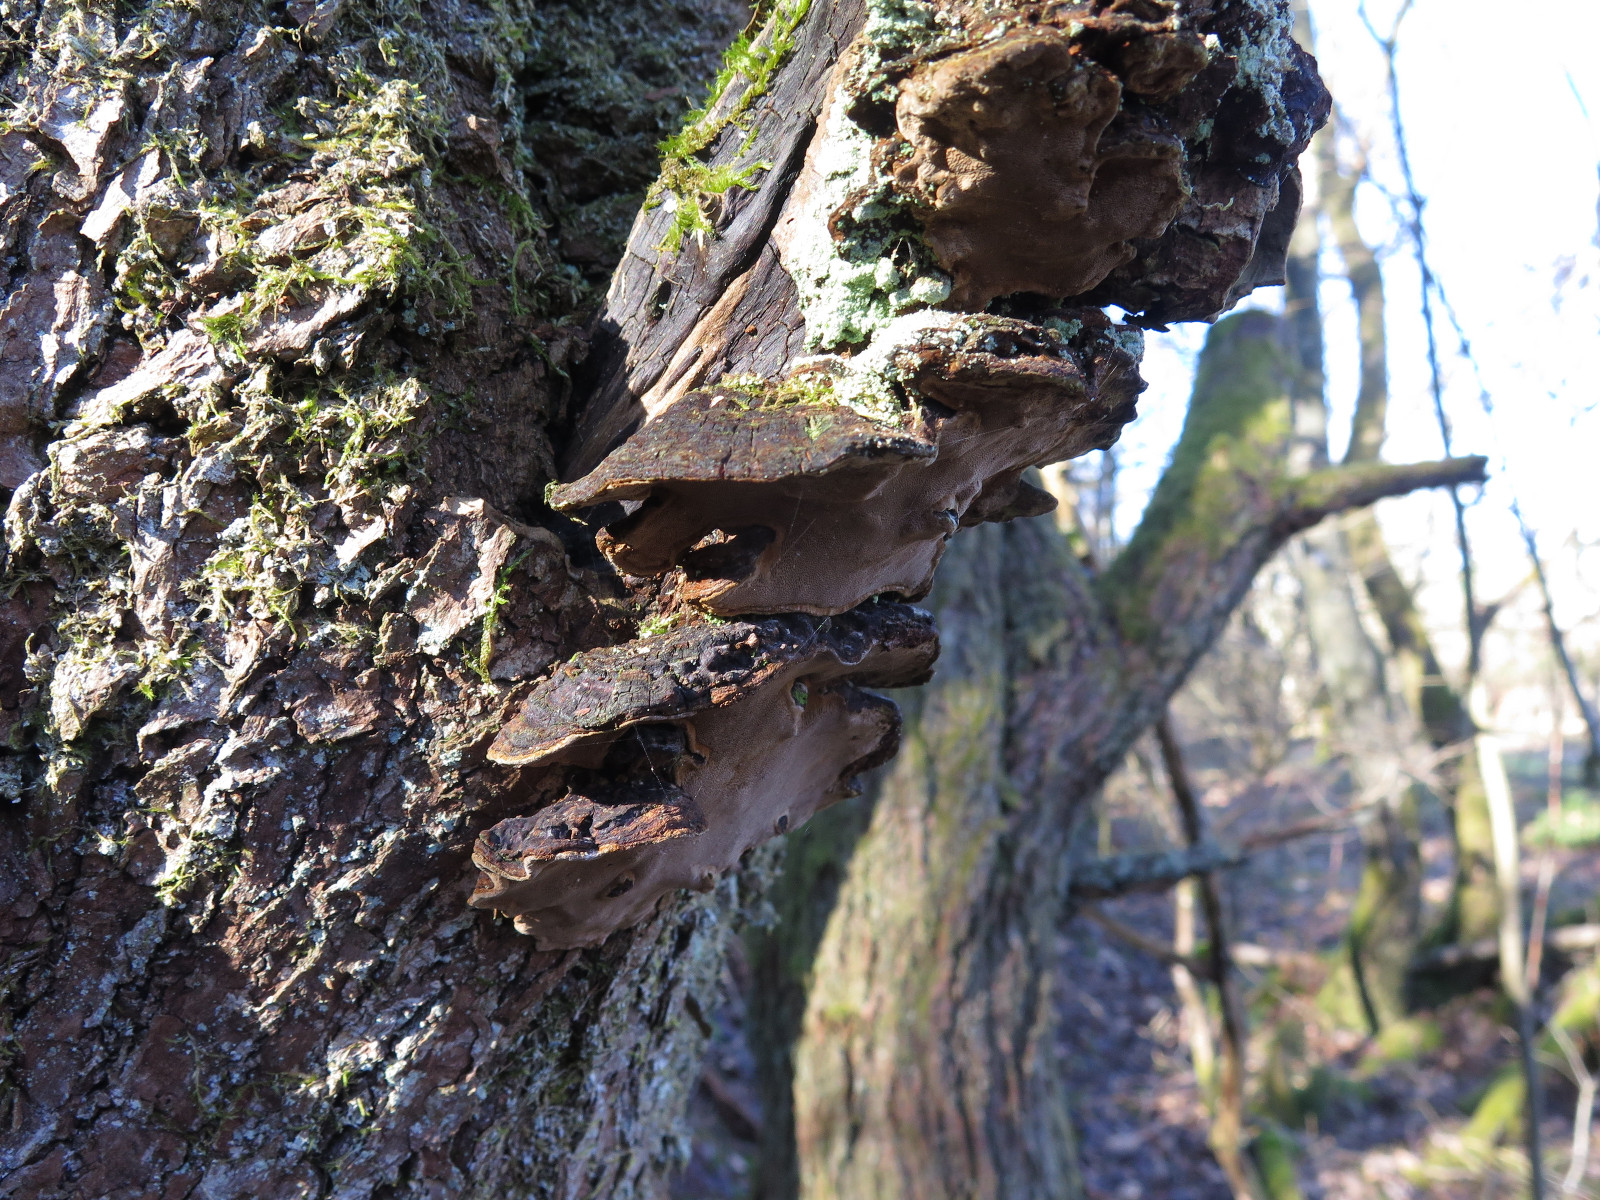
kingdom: Fungi
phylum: Basidiomycota
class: Agaricomycetes
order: Hymenochaetales
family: Hymenochaetaceae
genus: Phellinopsis
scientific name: Phellinopsis conchata
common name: pile-ildporesvamp
